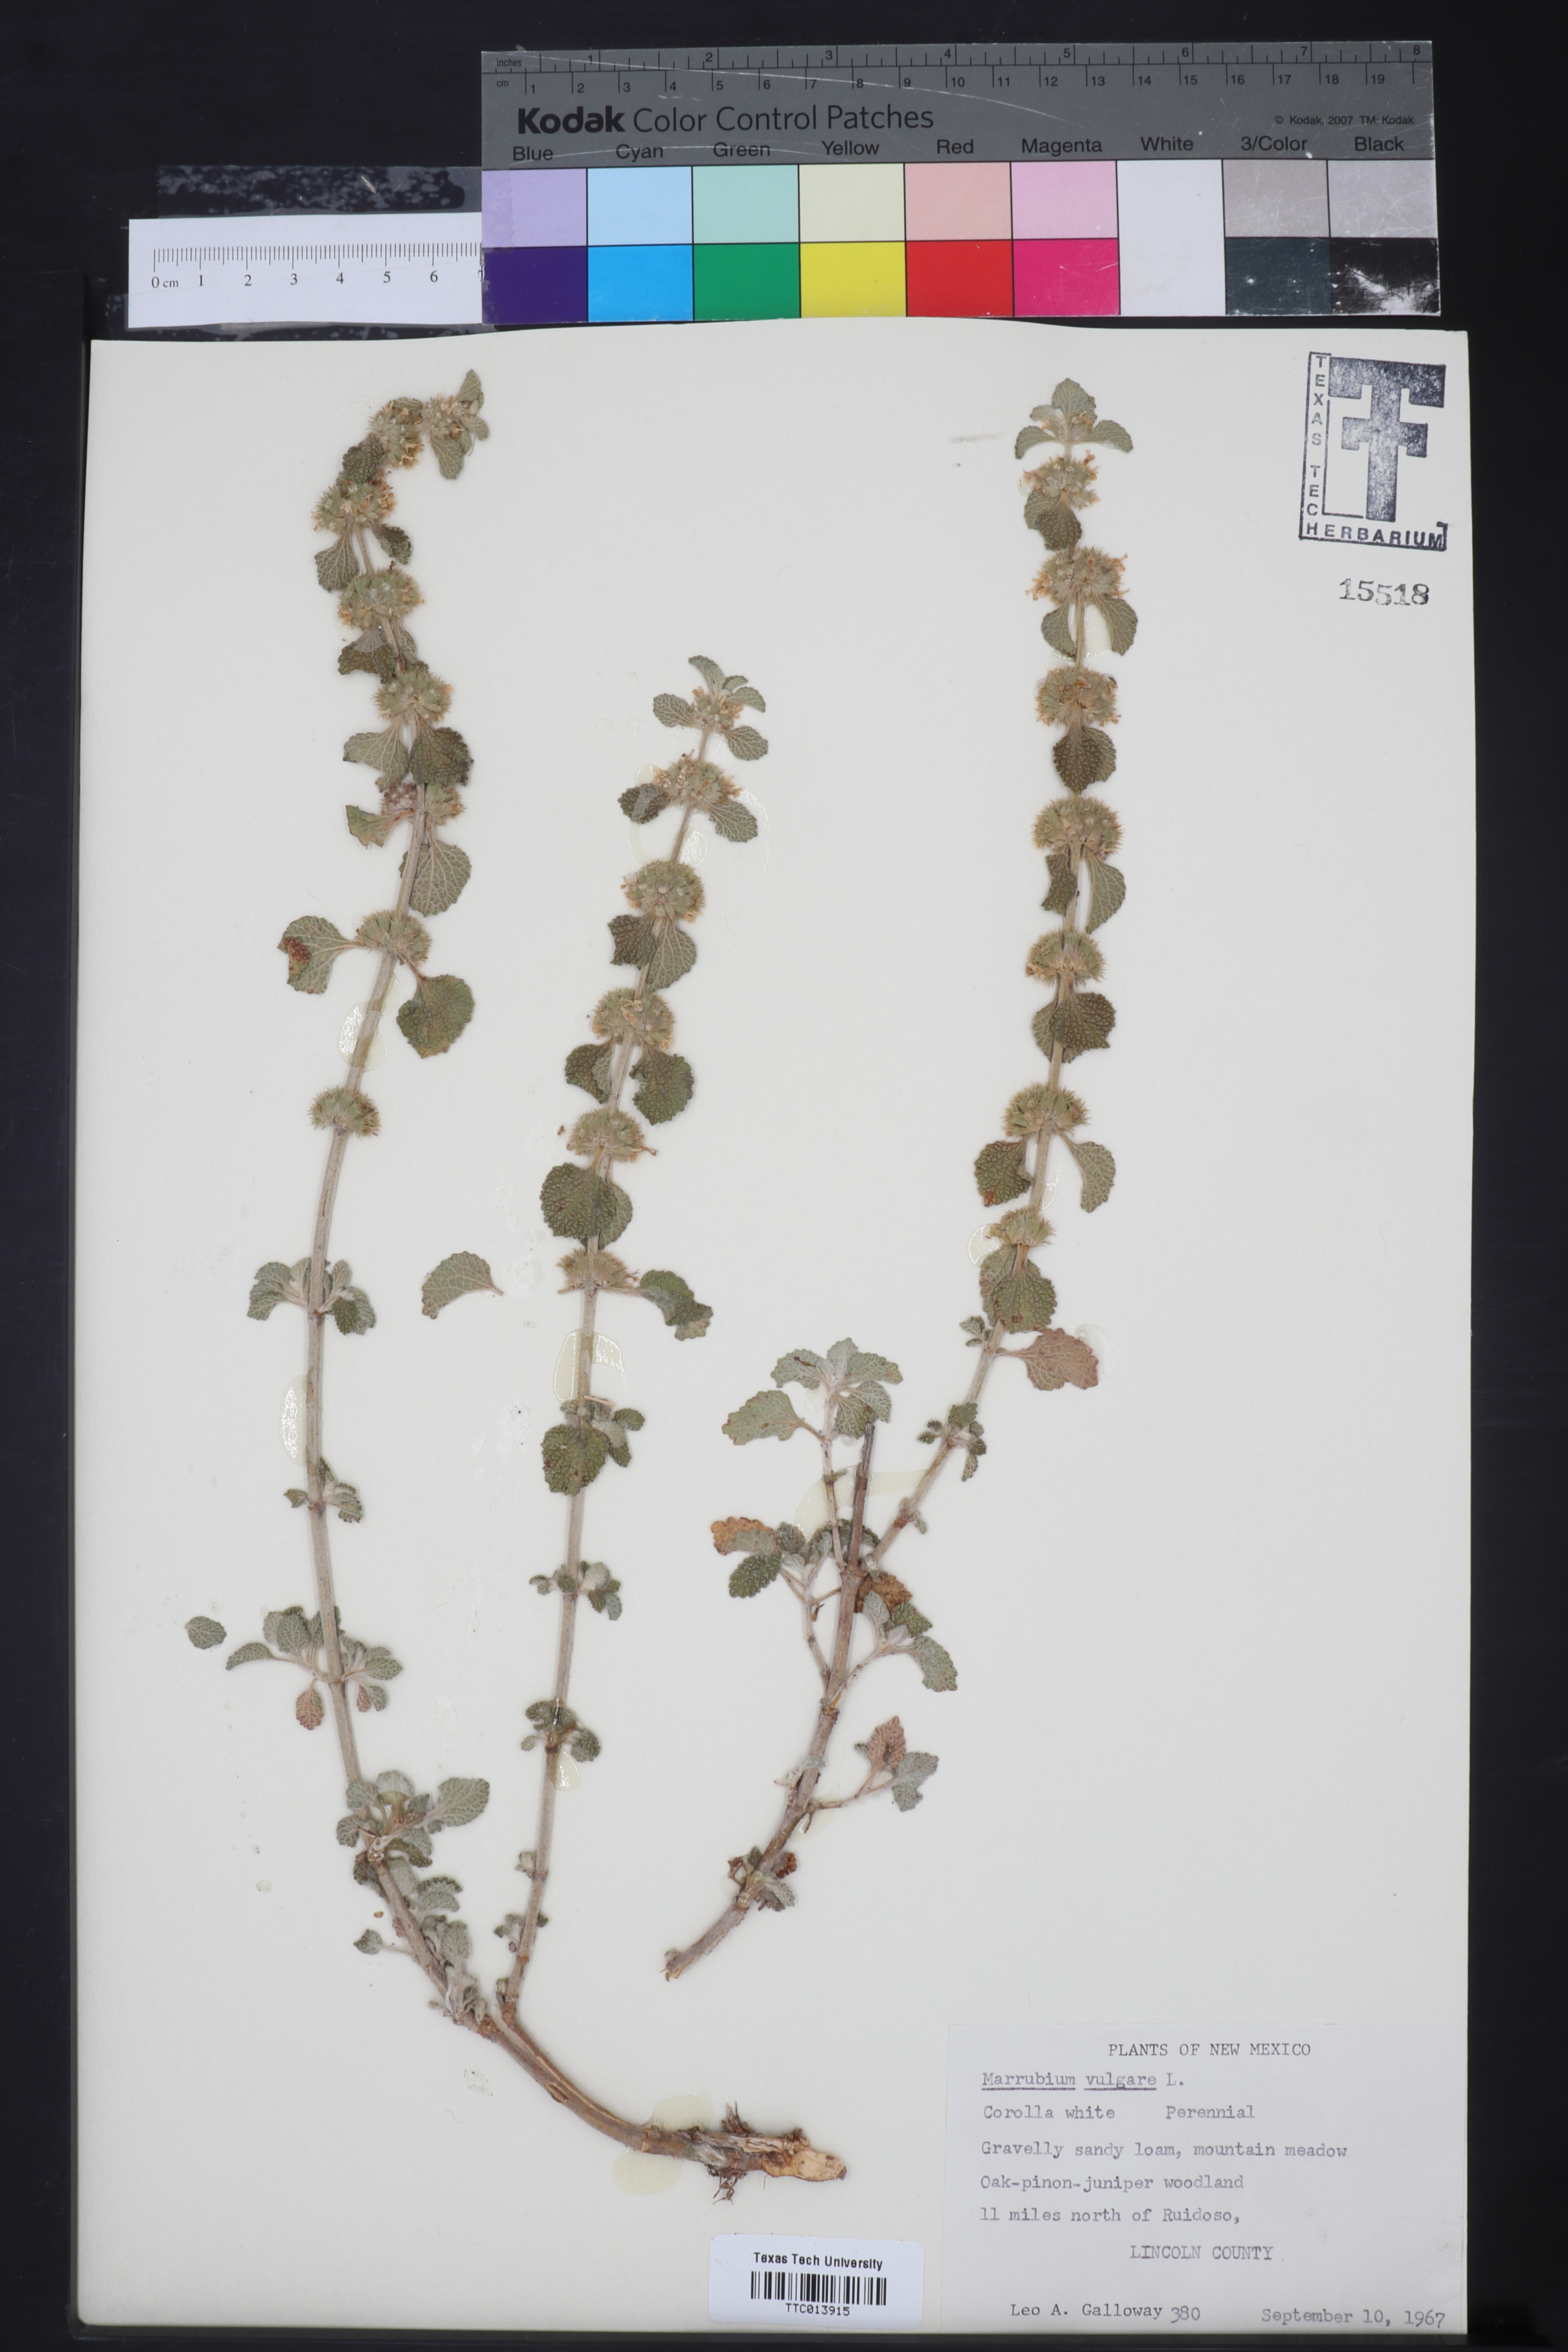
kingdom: Plantae
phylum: Tracheophyta
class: Magnoliopsida
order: Lamiales
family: Lamiaceae
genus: Marrubium
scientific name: Marrubium vulgare
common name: Horehound
